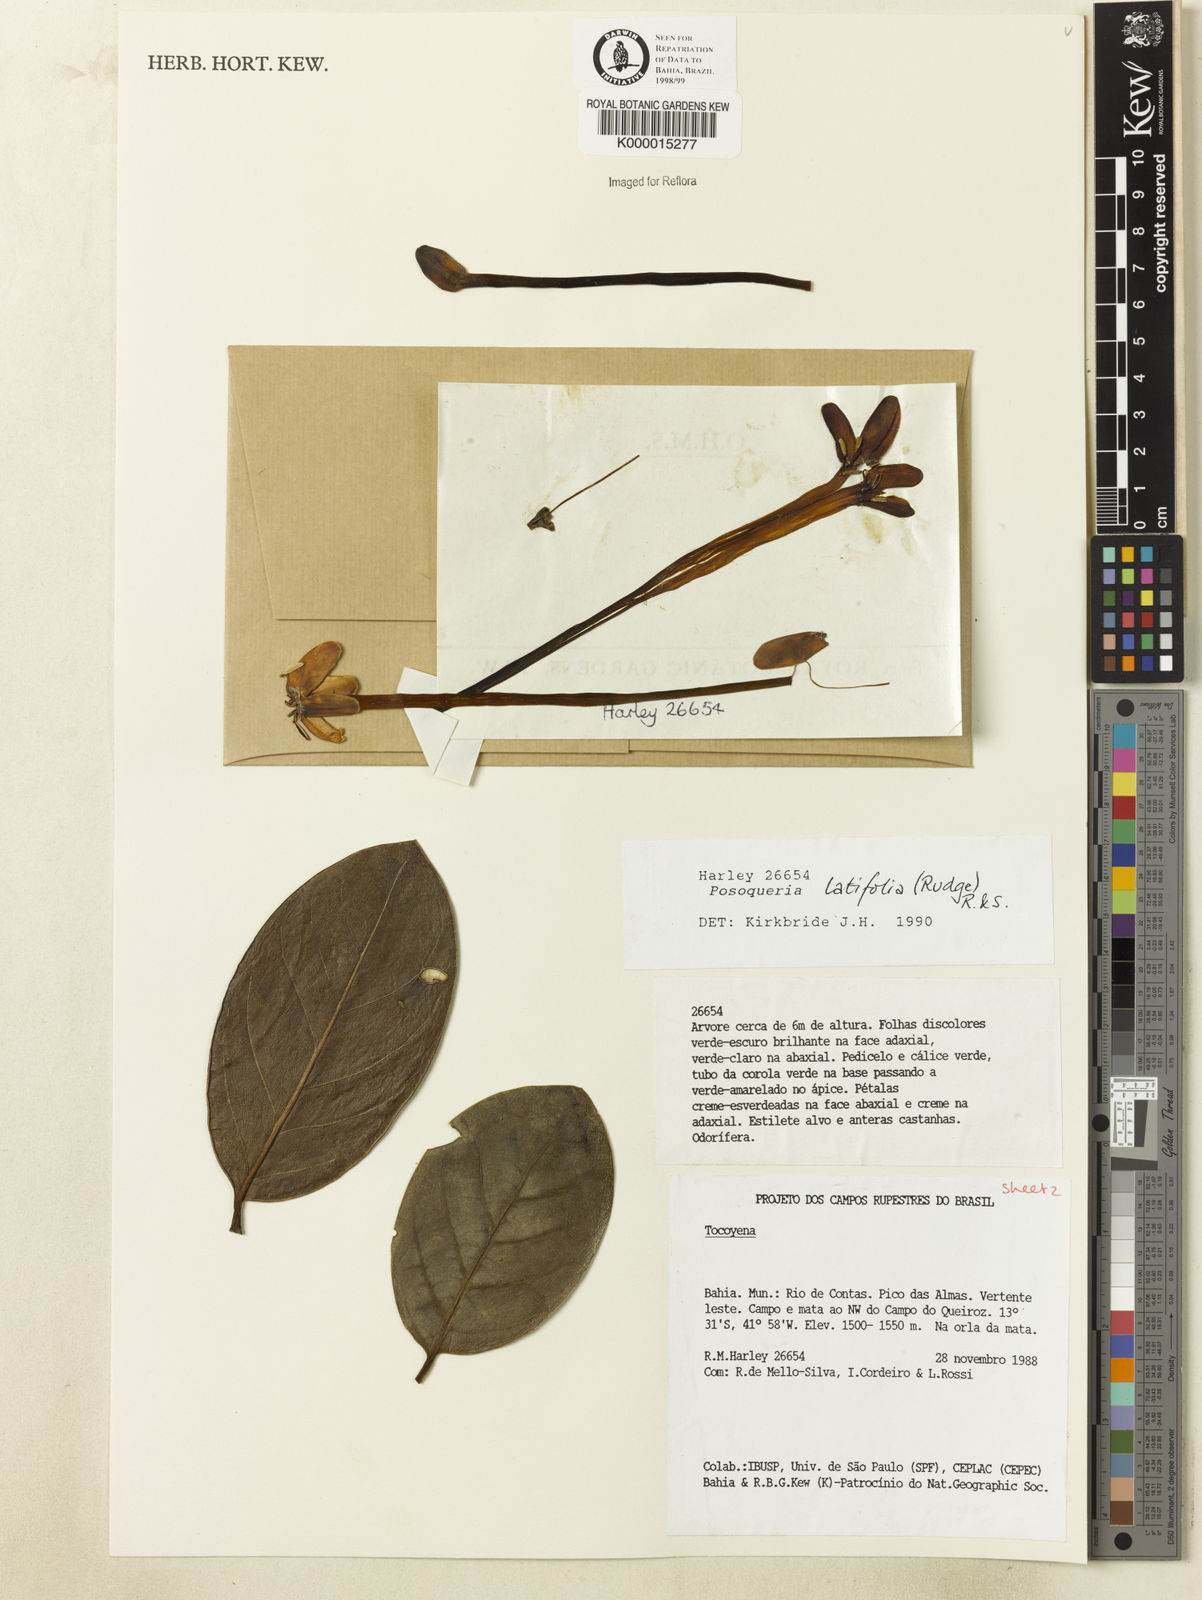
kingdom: Plantae
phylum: Tracheophyta
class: Magnoliopsida
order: Gentianales
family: Rubiaceae
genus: Posoqueria
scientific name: Posoqueria
